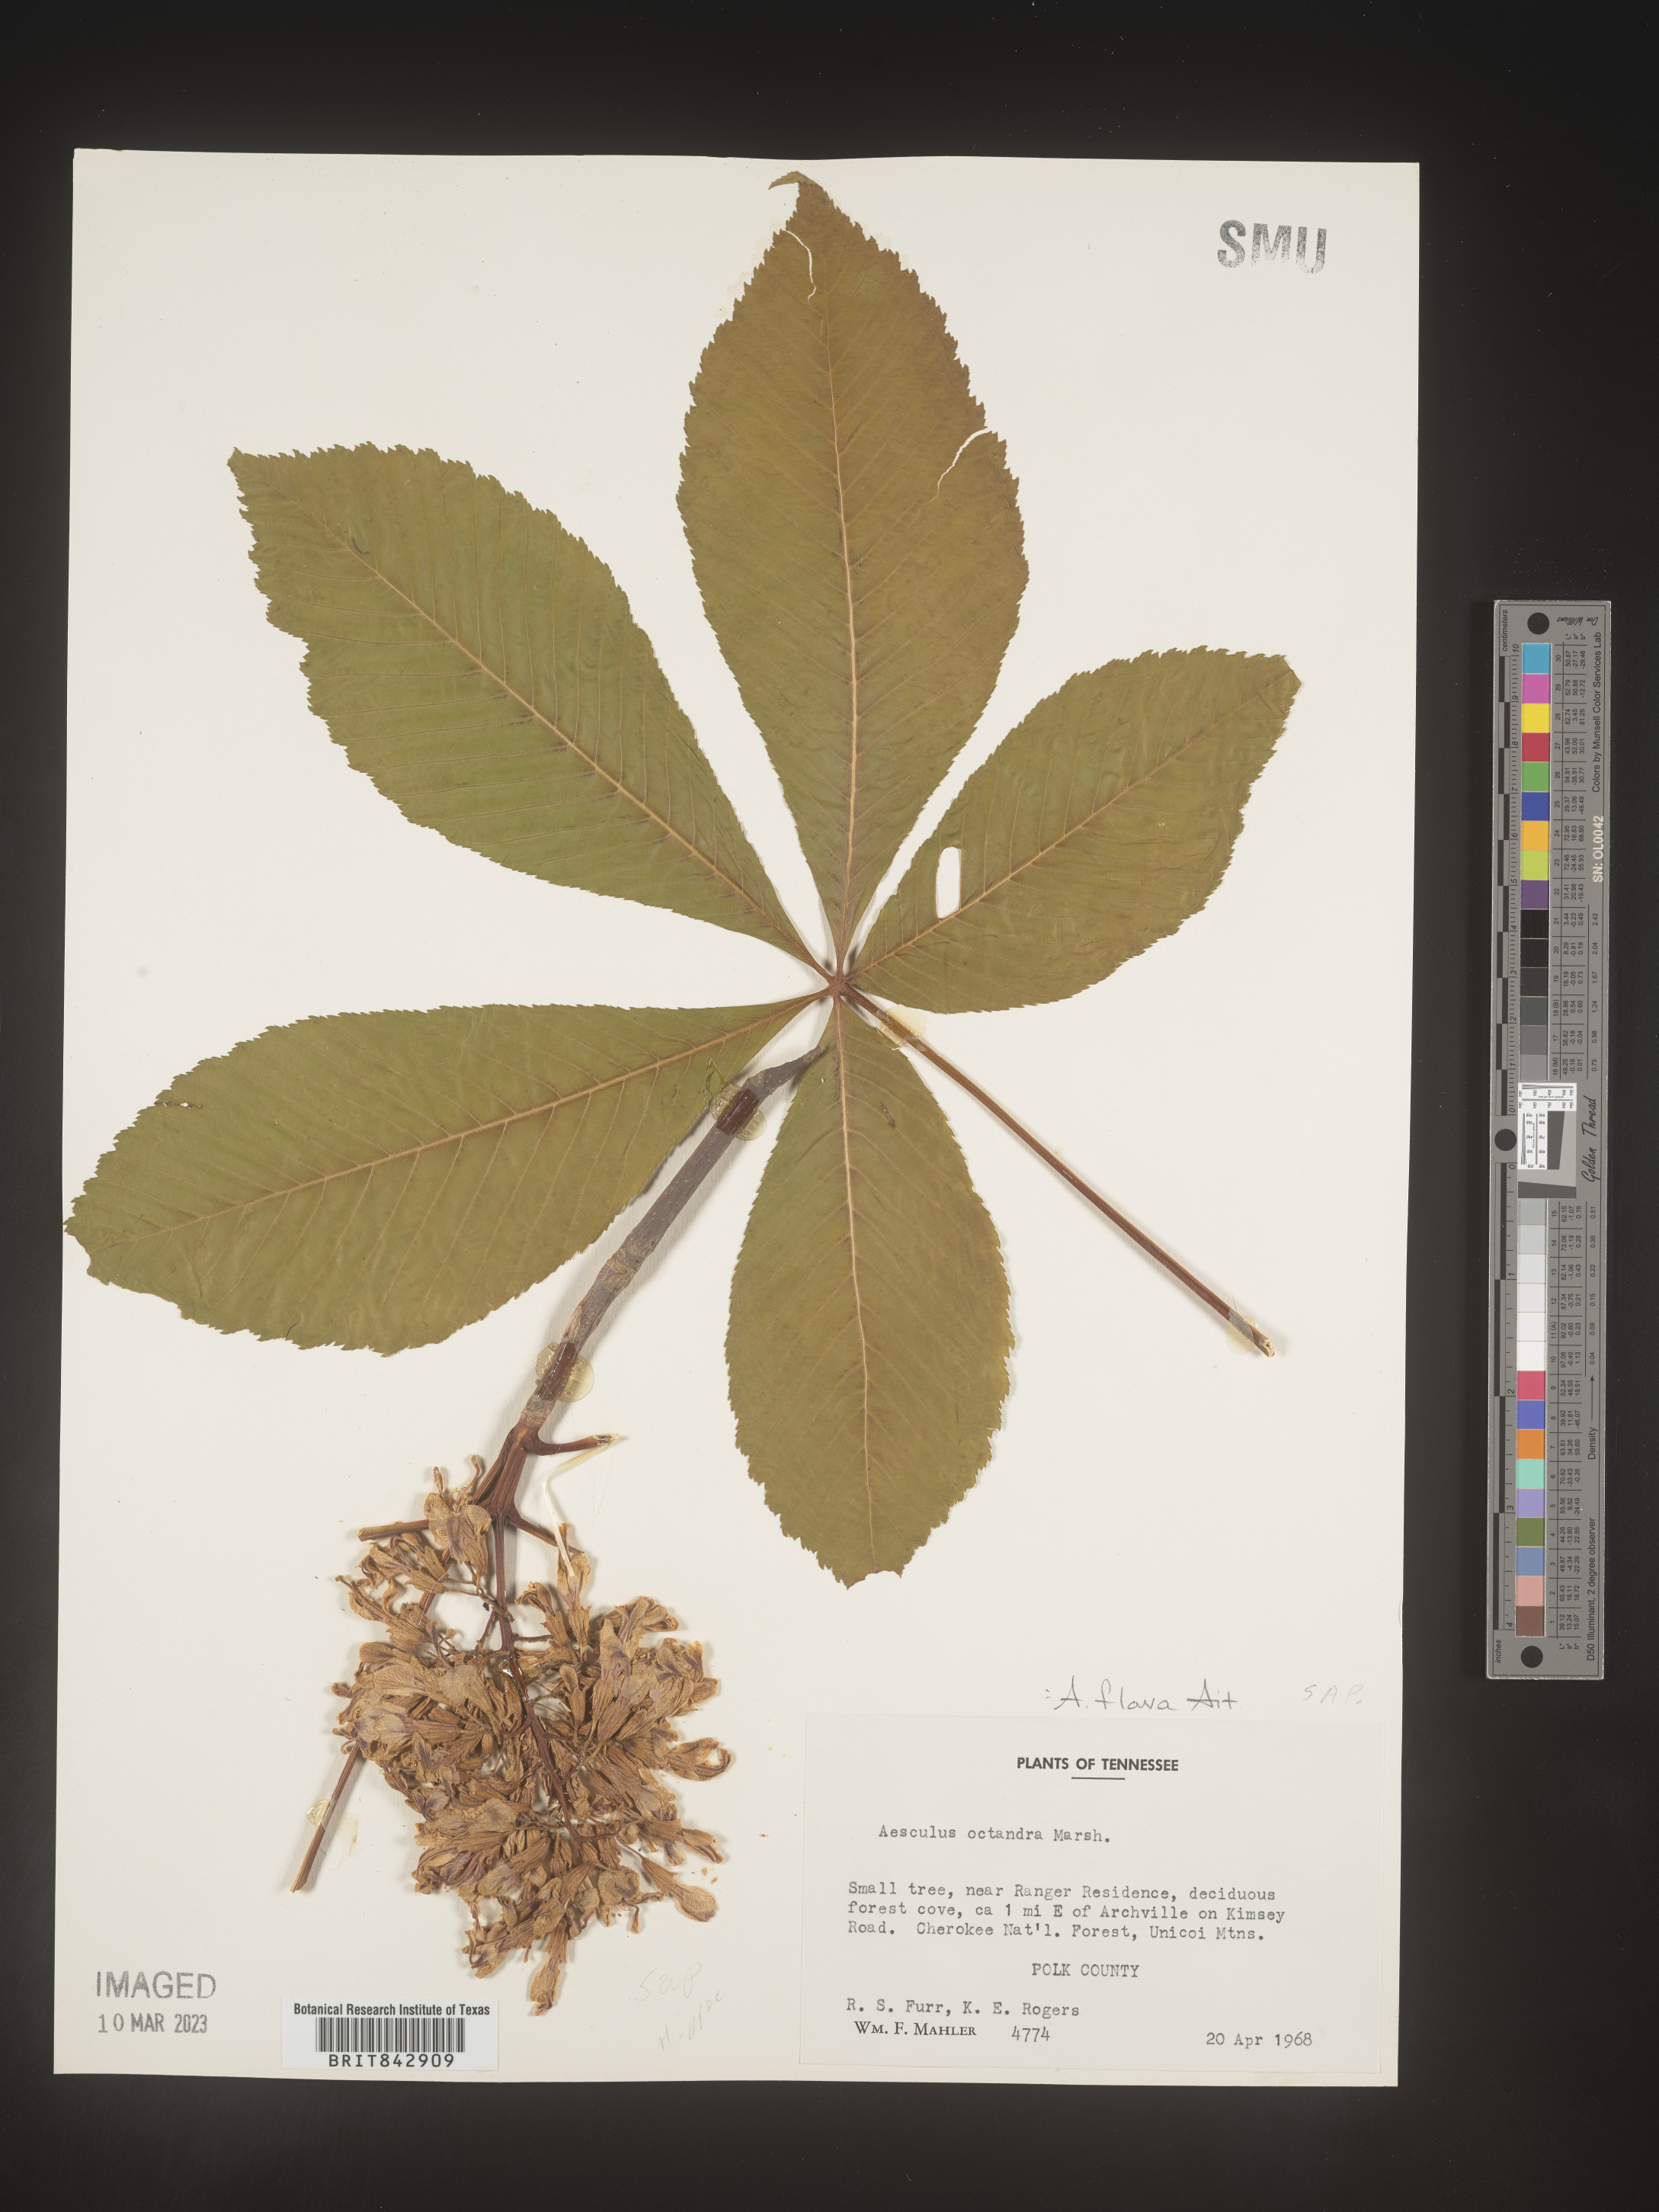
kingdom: Plantae
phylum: Tracheophyta
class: Magnoliopsida
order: Sapindales
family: Sapindaceae
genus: Aesculus
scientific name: Aesculus flava
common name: Yellow buckeye
